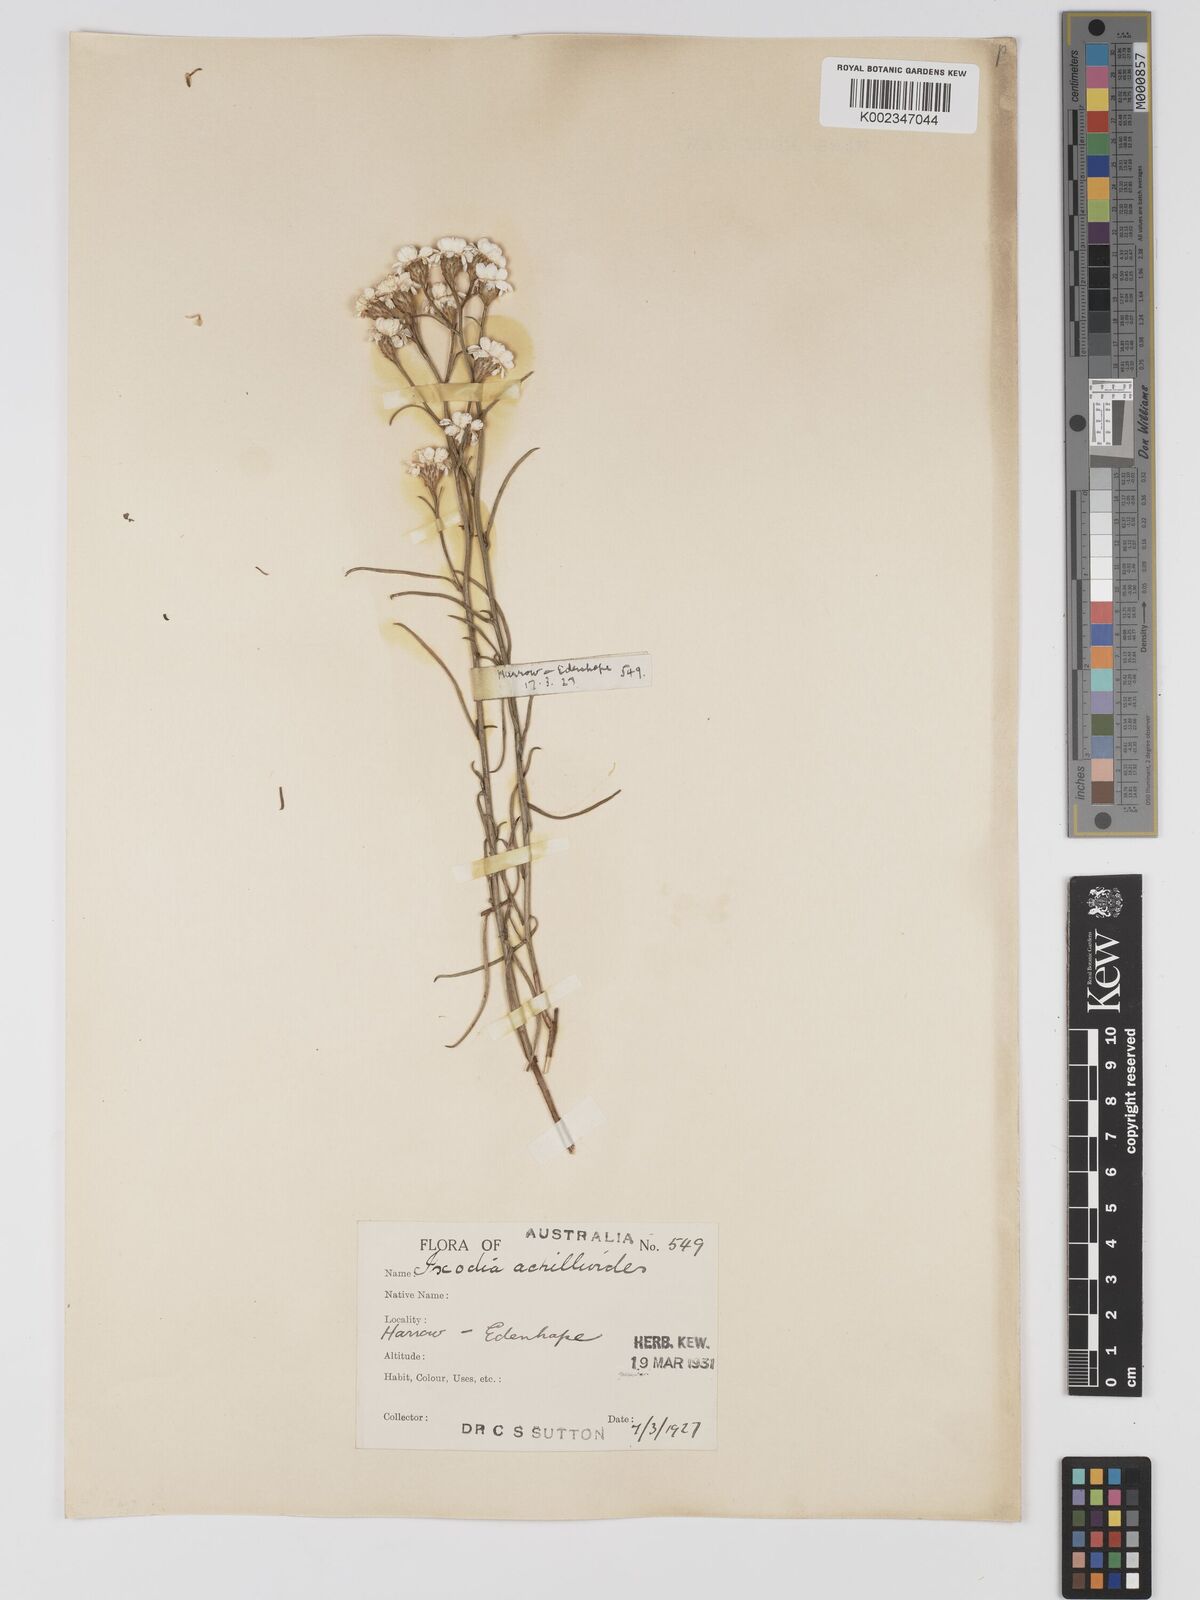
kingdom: Plantae
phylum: Tracheophyta
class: Magnoliopsida
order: Asterales
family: Asteraceae
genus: Ixodia
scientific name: Ixodia achilleoides
